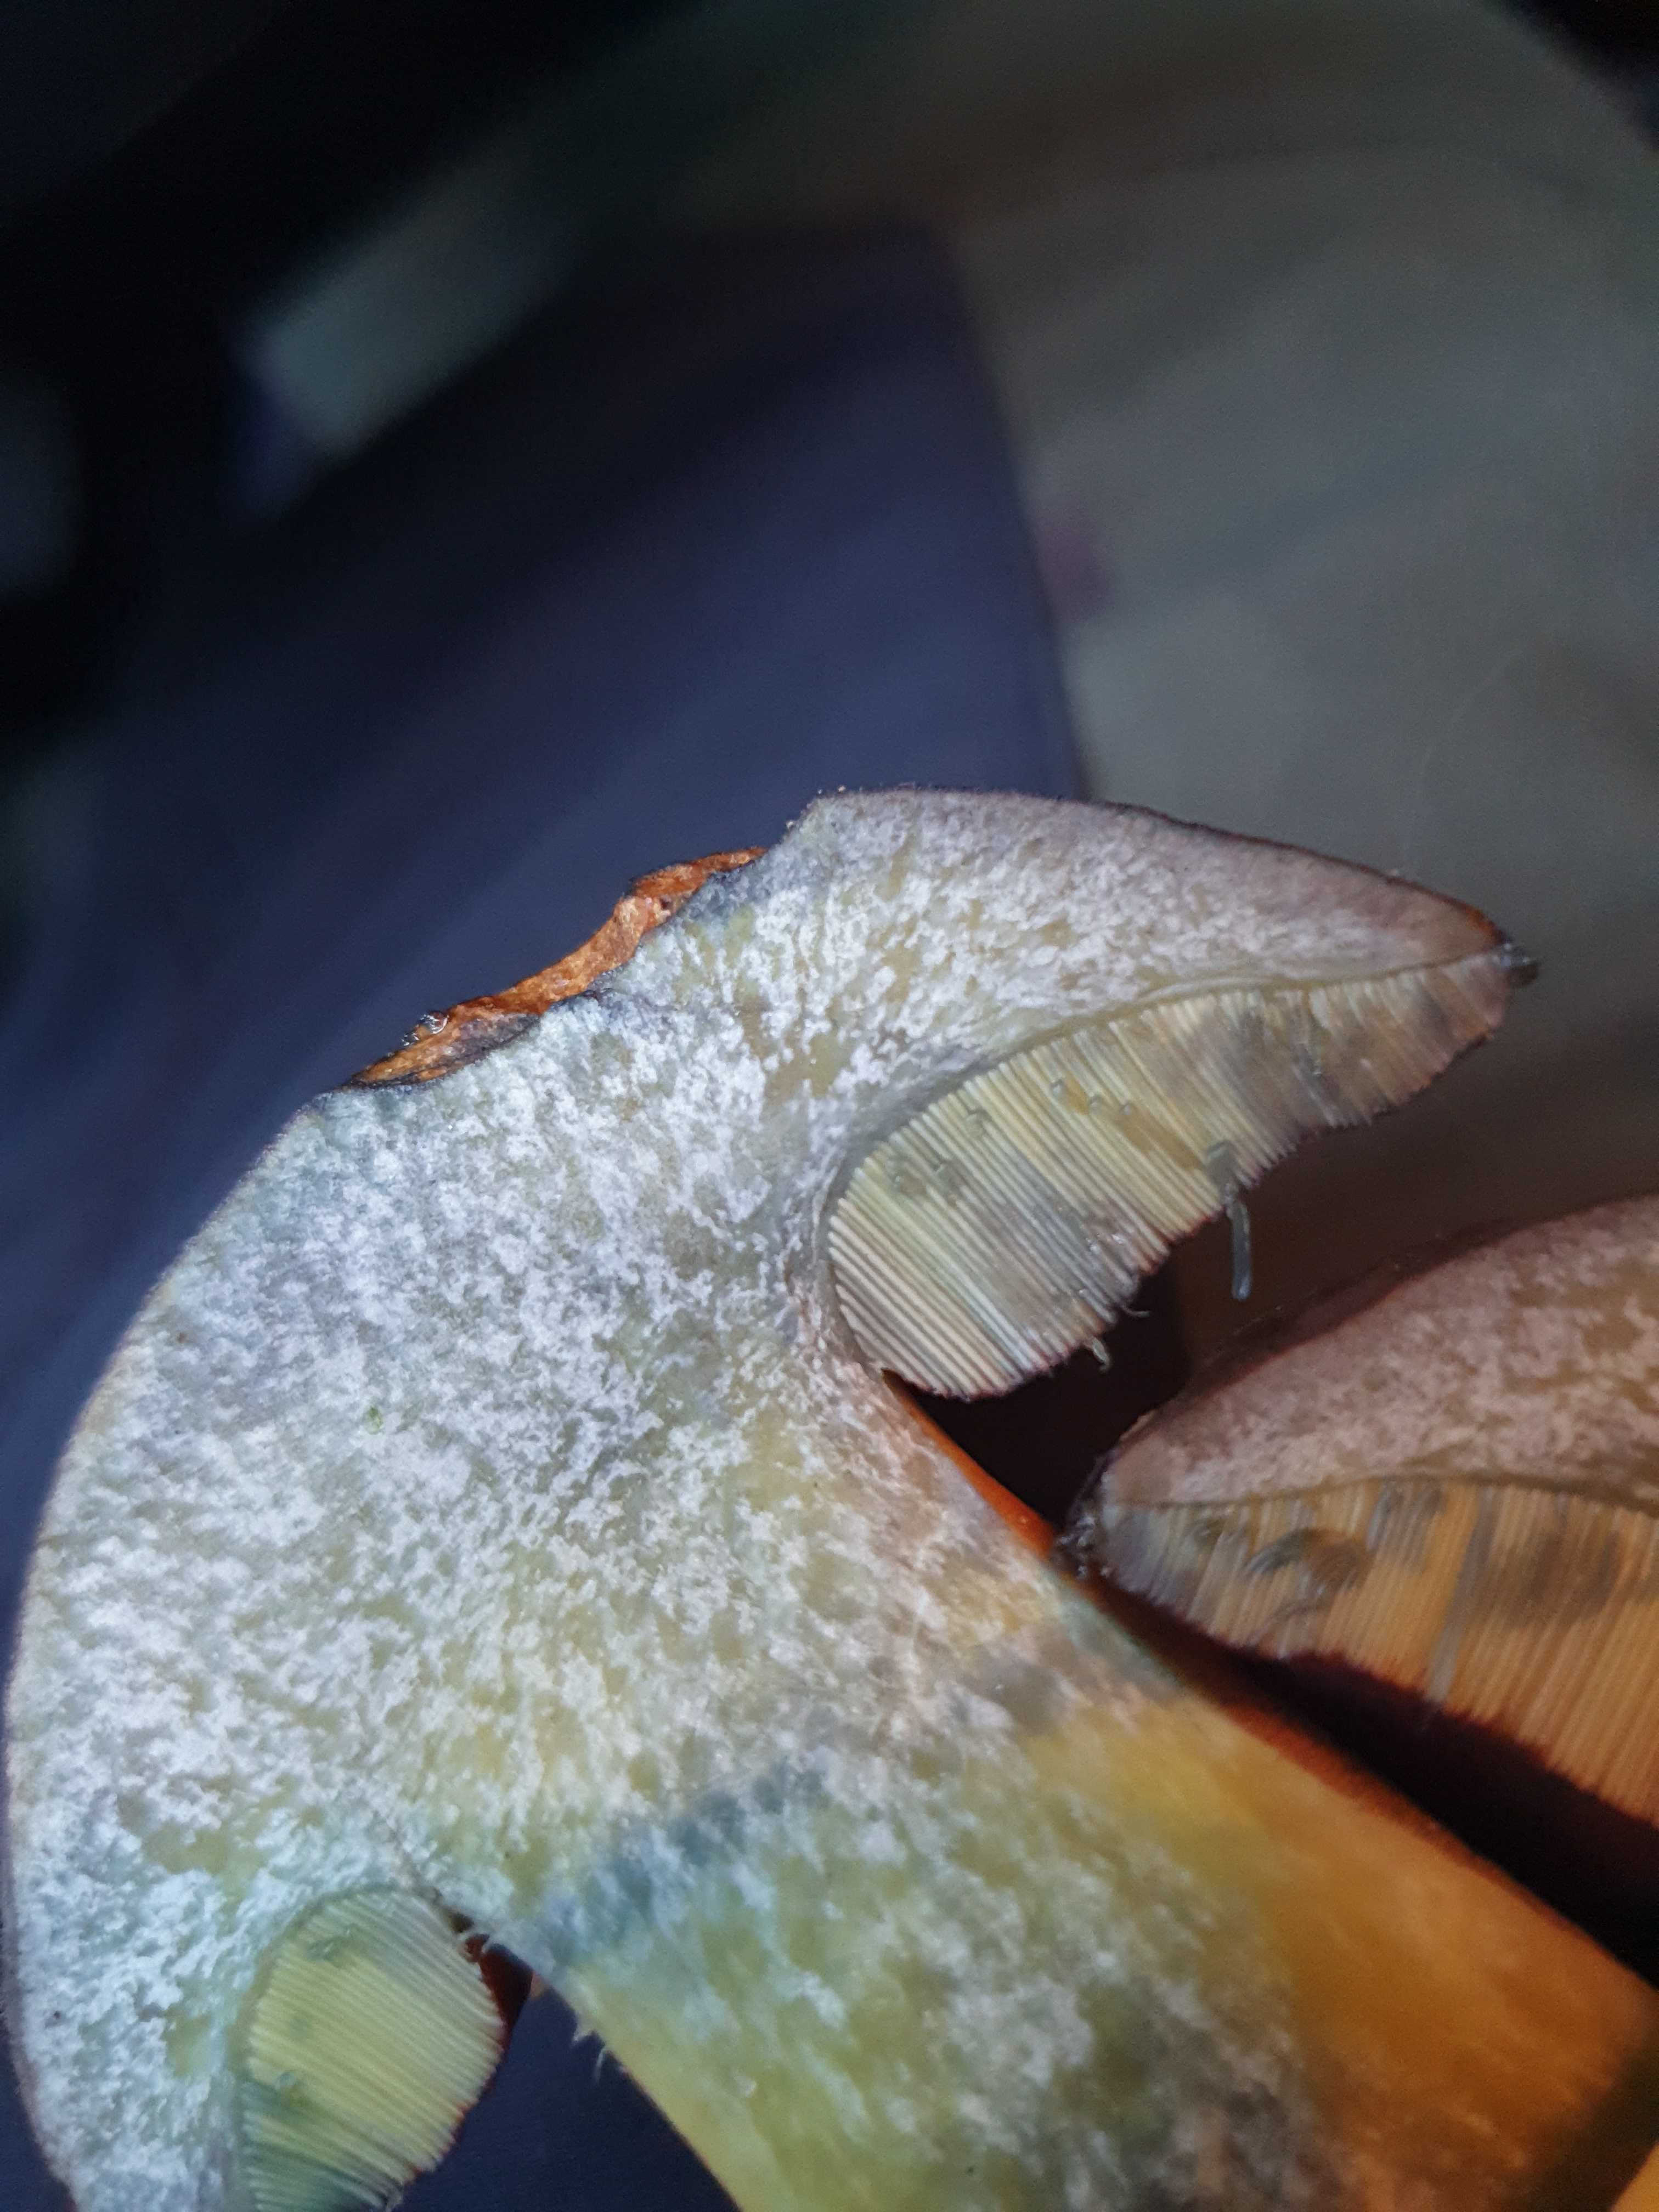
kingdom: Fungi
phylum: Basidiomycota
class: Agaricomycetes
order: Boletales
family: Boletaceae
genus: Neoboletus
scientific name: Neoboletus erythropus
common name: punktstokket indigorørhat
